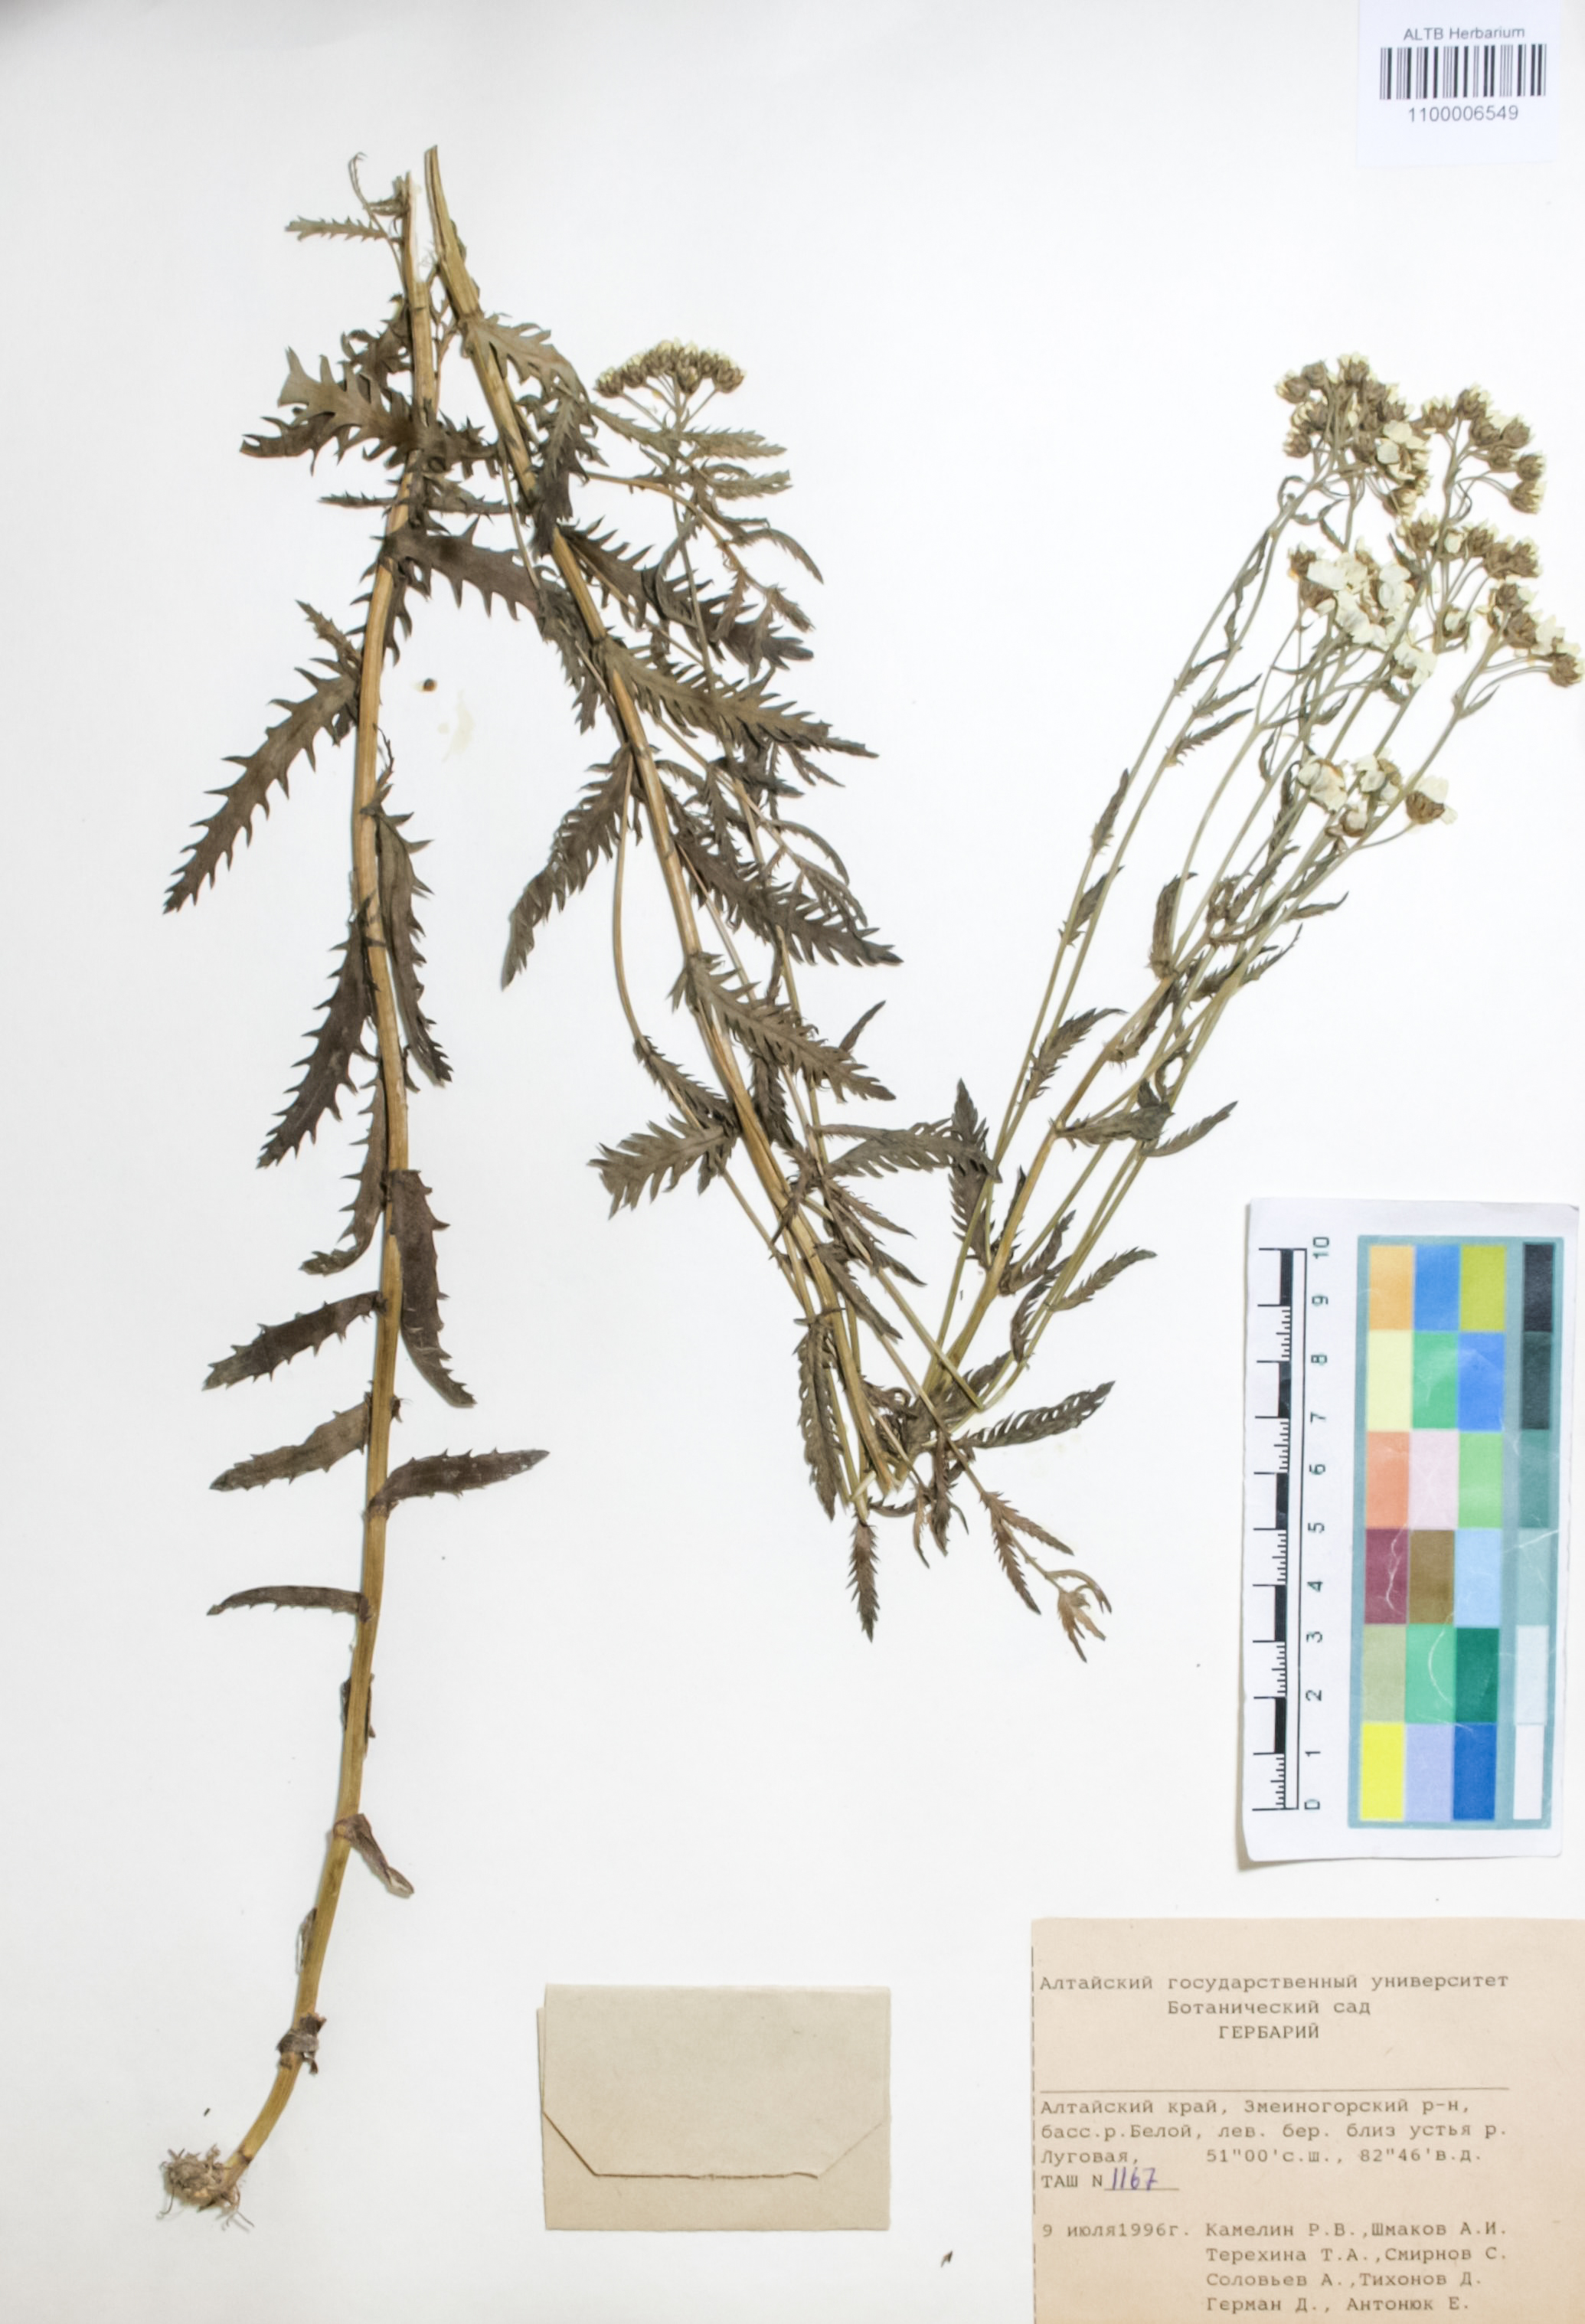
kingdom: Plantae
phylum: Tracheophyta
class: Magnoliopsida
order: Asterales
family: Asteraceae
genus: Achillea
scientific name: Achillea ledebourii
